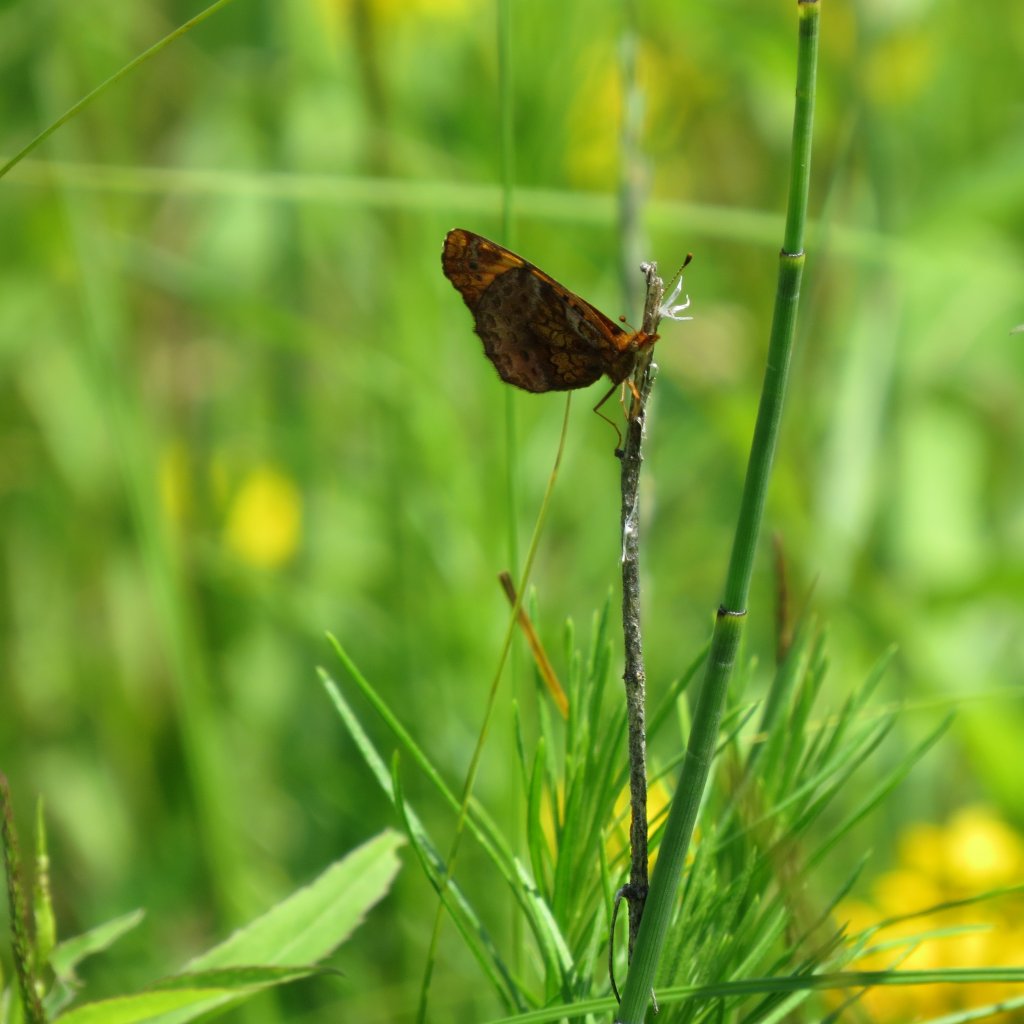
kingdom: Animalia
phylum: Arthropoda
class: Insecta
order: Lepidoptera
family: Nymphalidae
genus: Clossiana
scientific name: Clossiana toddi
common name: Meadow Fritillary
